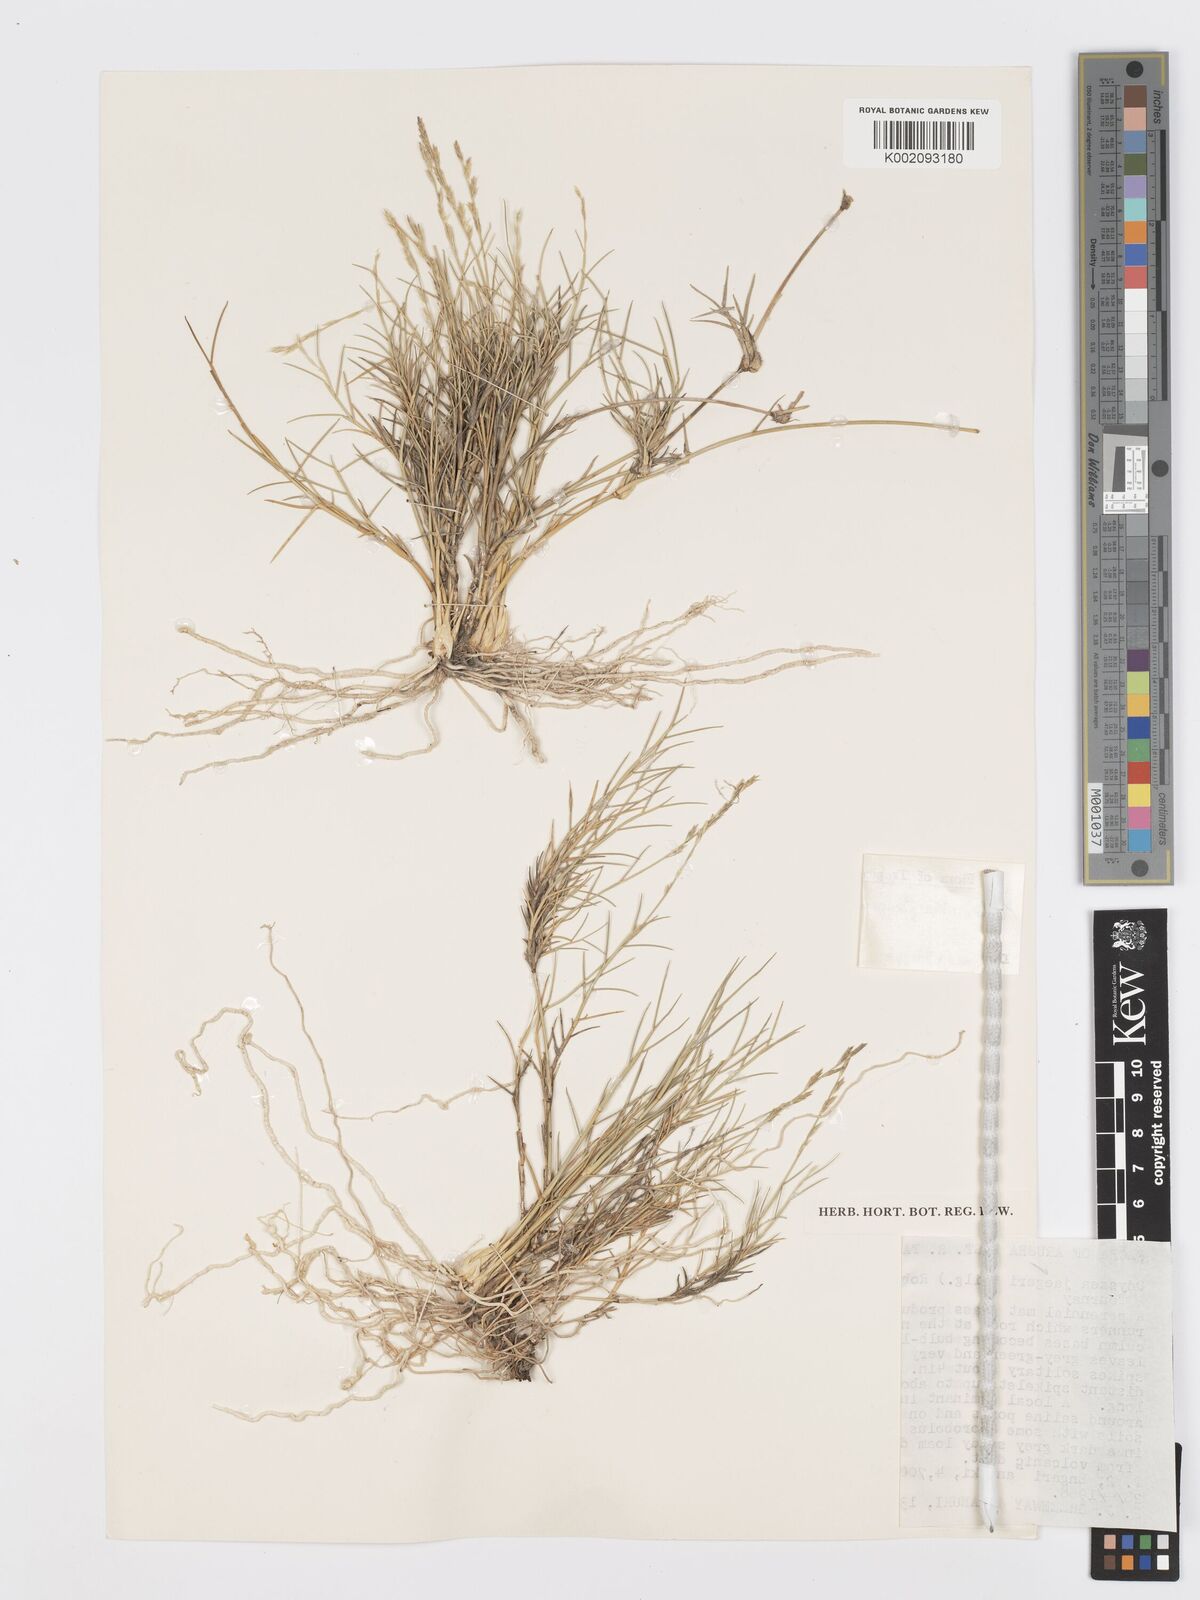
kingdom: Plantae
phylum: Tracheophyta
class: Liliopsida
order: Poales
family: Poaceae
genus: Psilolemma
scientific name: Psilolemma jaegeri
